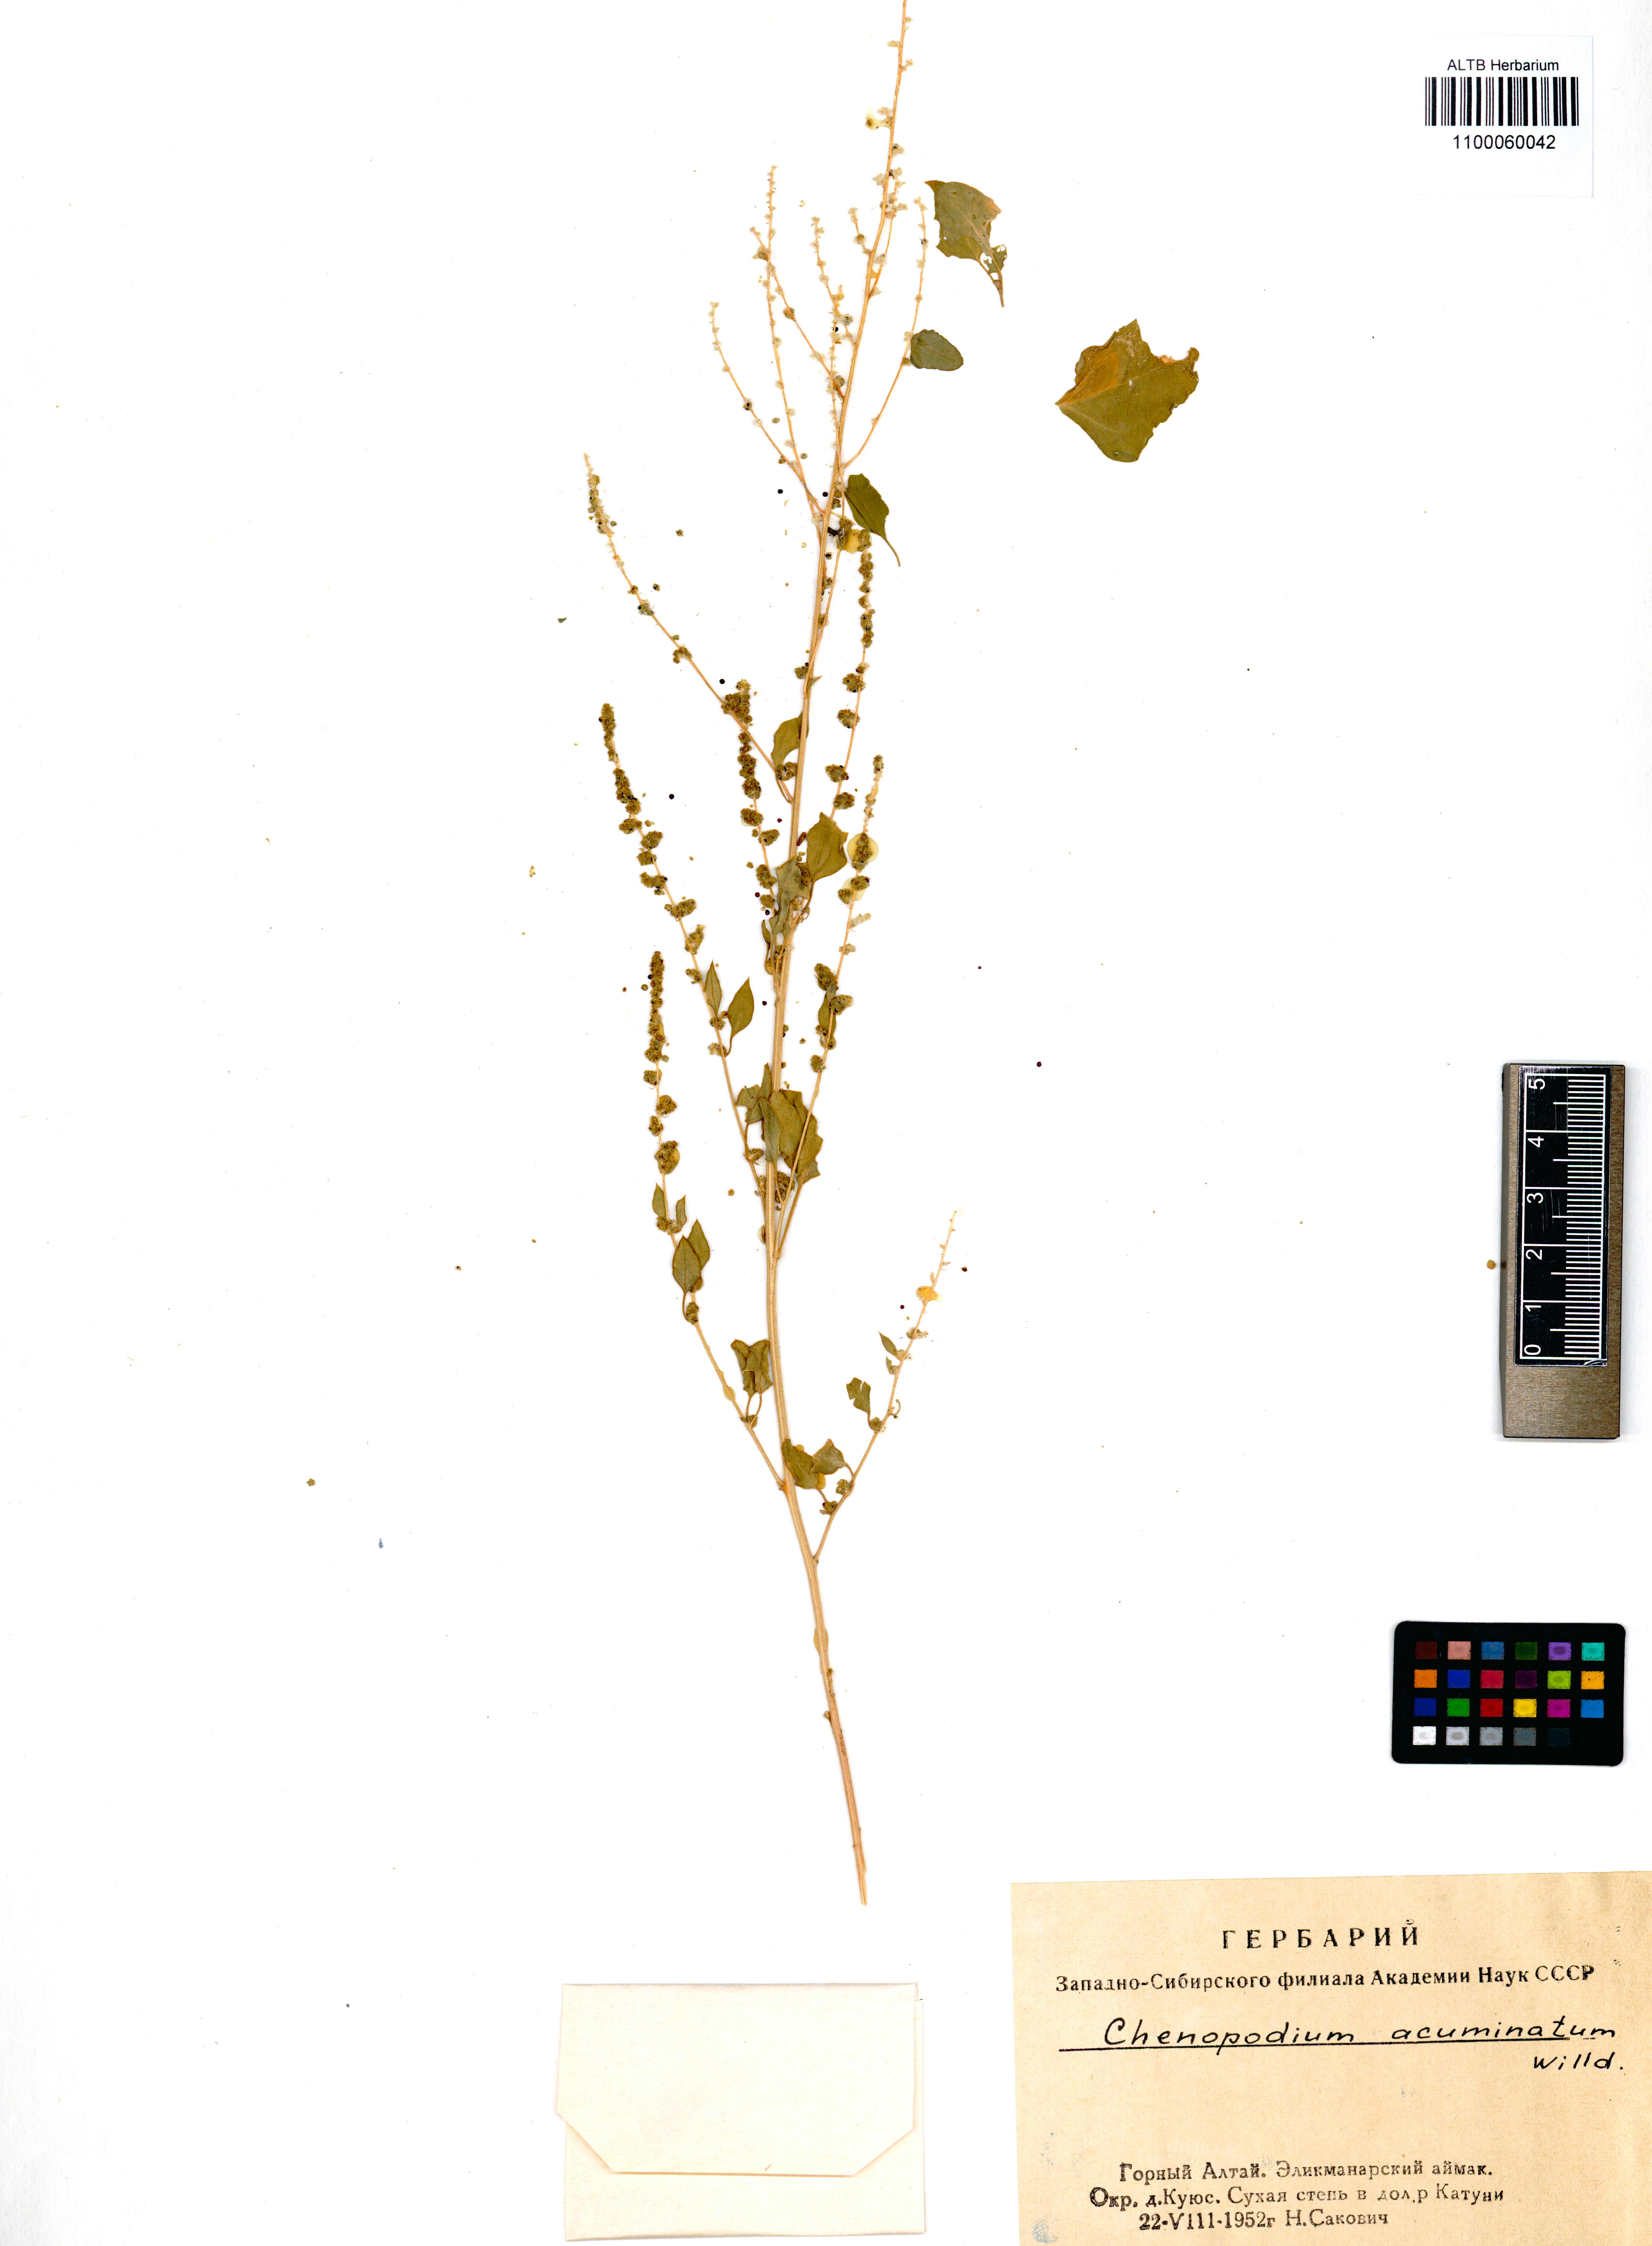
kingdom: Plantae
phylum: Tracheophyta
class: Magnoliopsida
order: Caryophyllales
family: Amaranthaceae
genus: Chenopodium
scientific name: Chenopodium acuminatum
